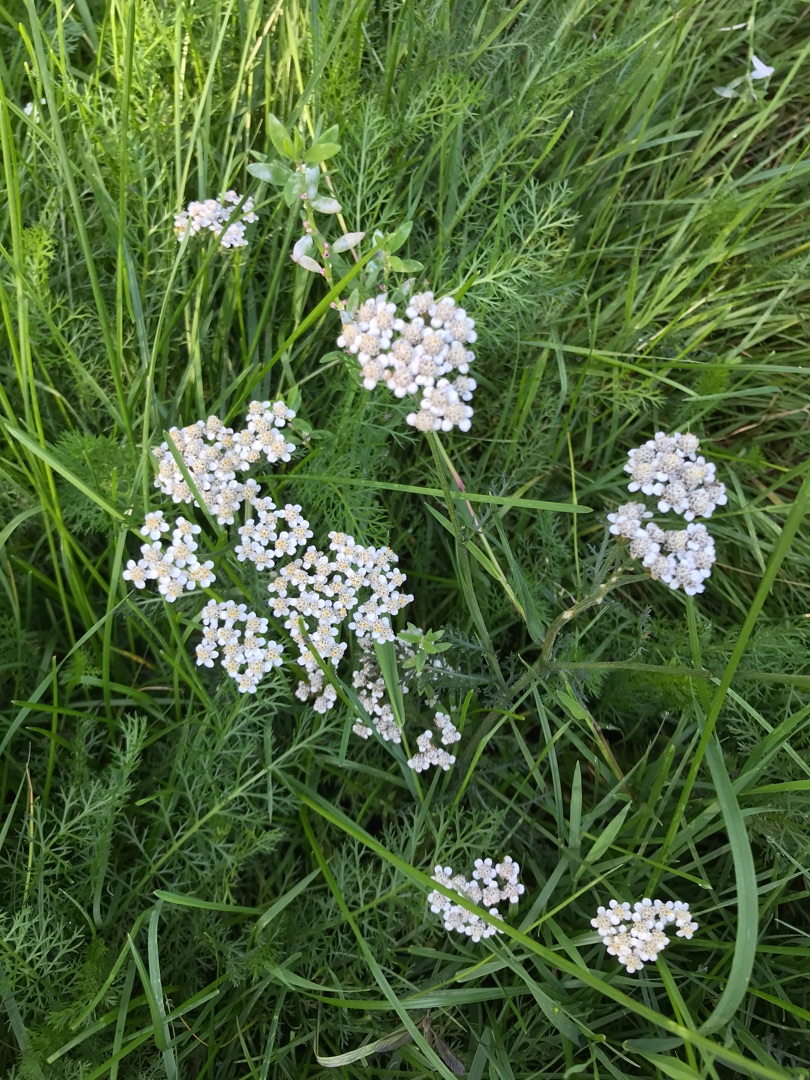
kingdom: Plantae
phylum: Tracheophyta
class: Magnoliopsida
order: Asterales
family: Asteraceae
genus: Achillea
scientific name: Achillea millefolium
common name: Almindelig røllike
